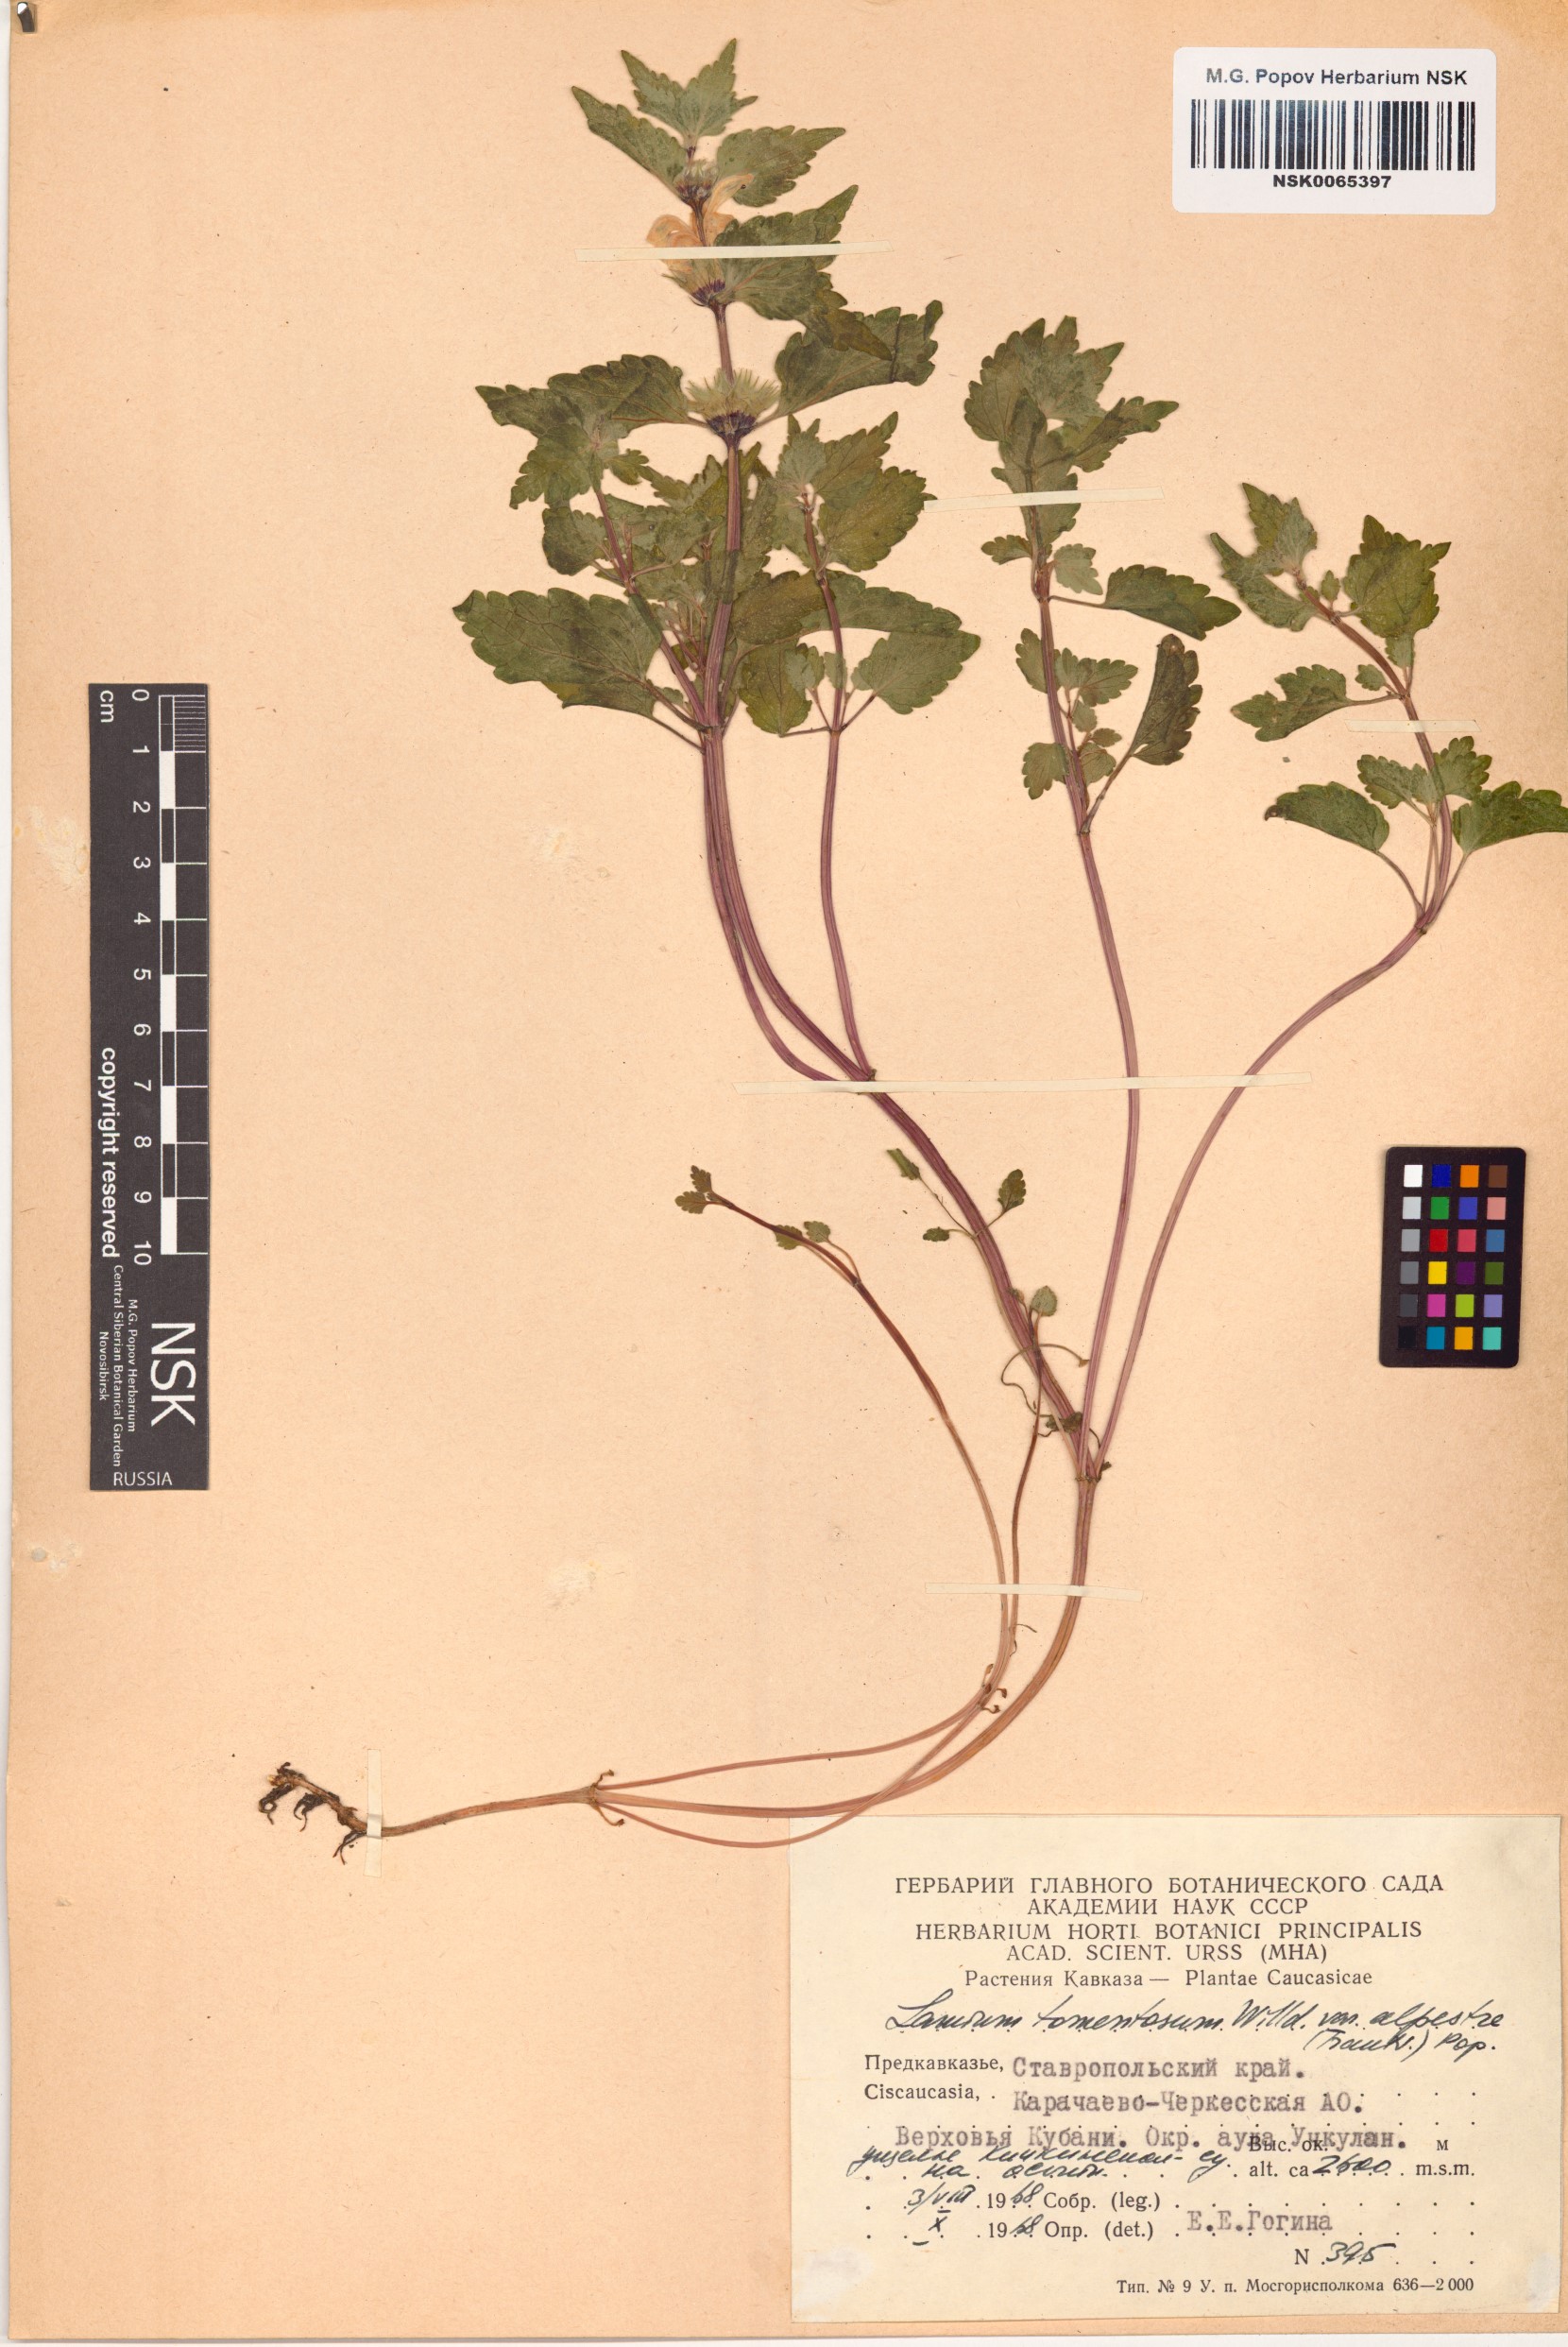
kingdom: Plantae
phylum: Tracheophyta
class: Magnoliopsida
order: Lamiales
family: Lamiaceae
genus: Lamium
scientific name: Lamium tomentosum
